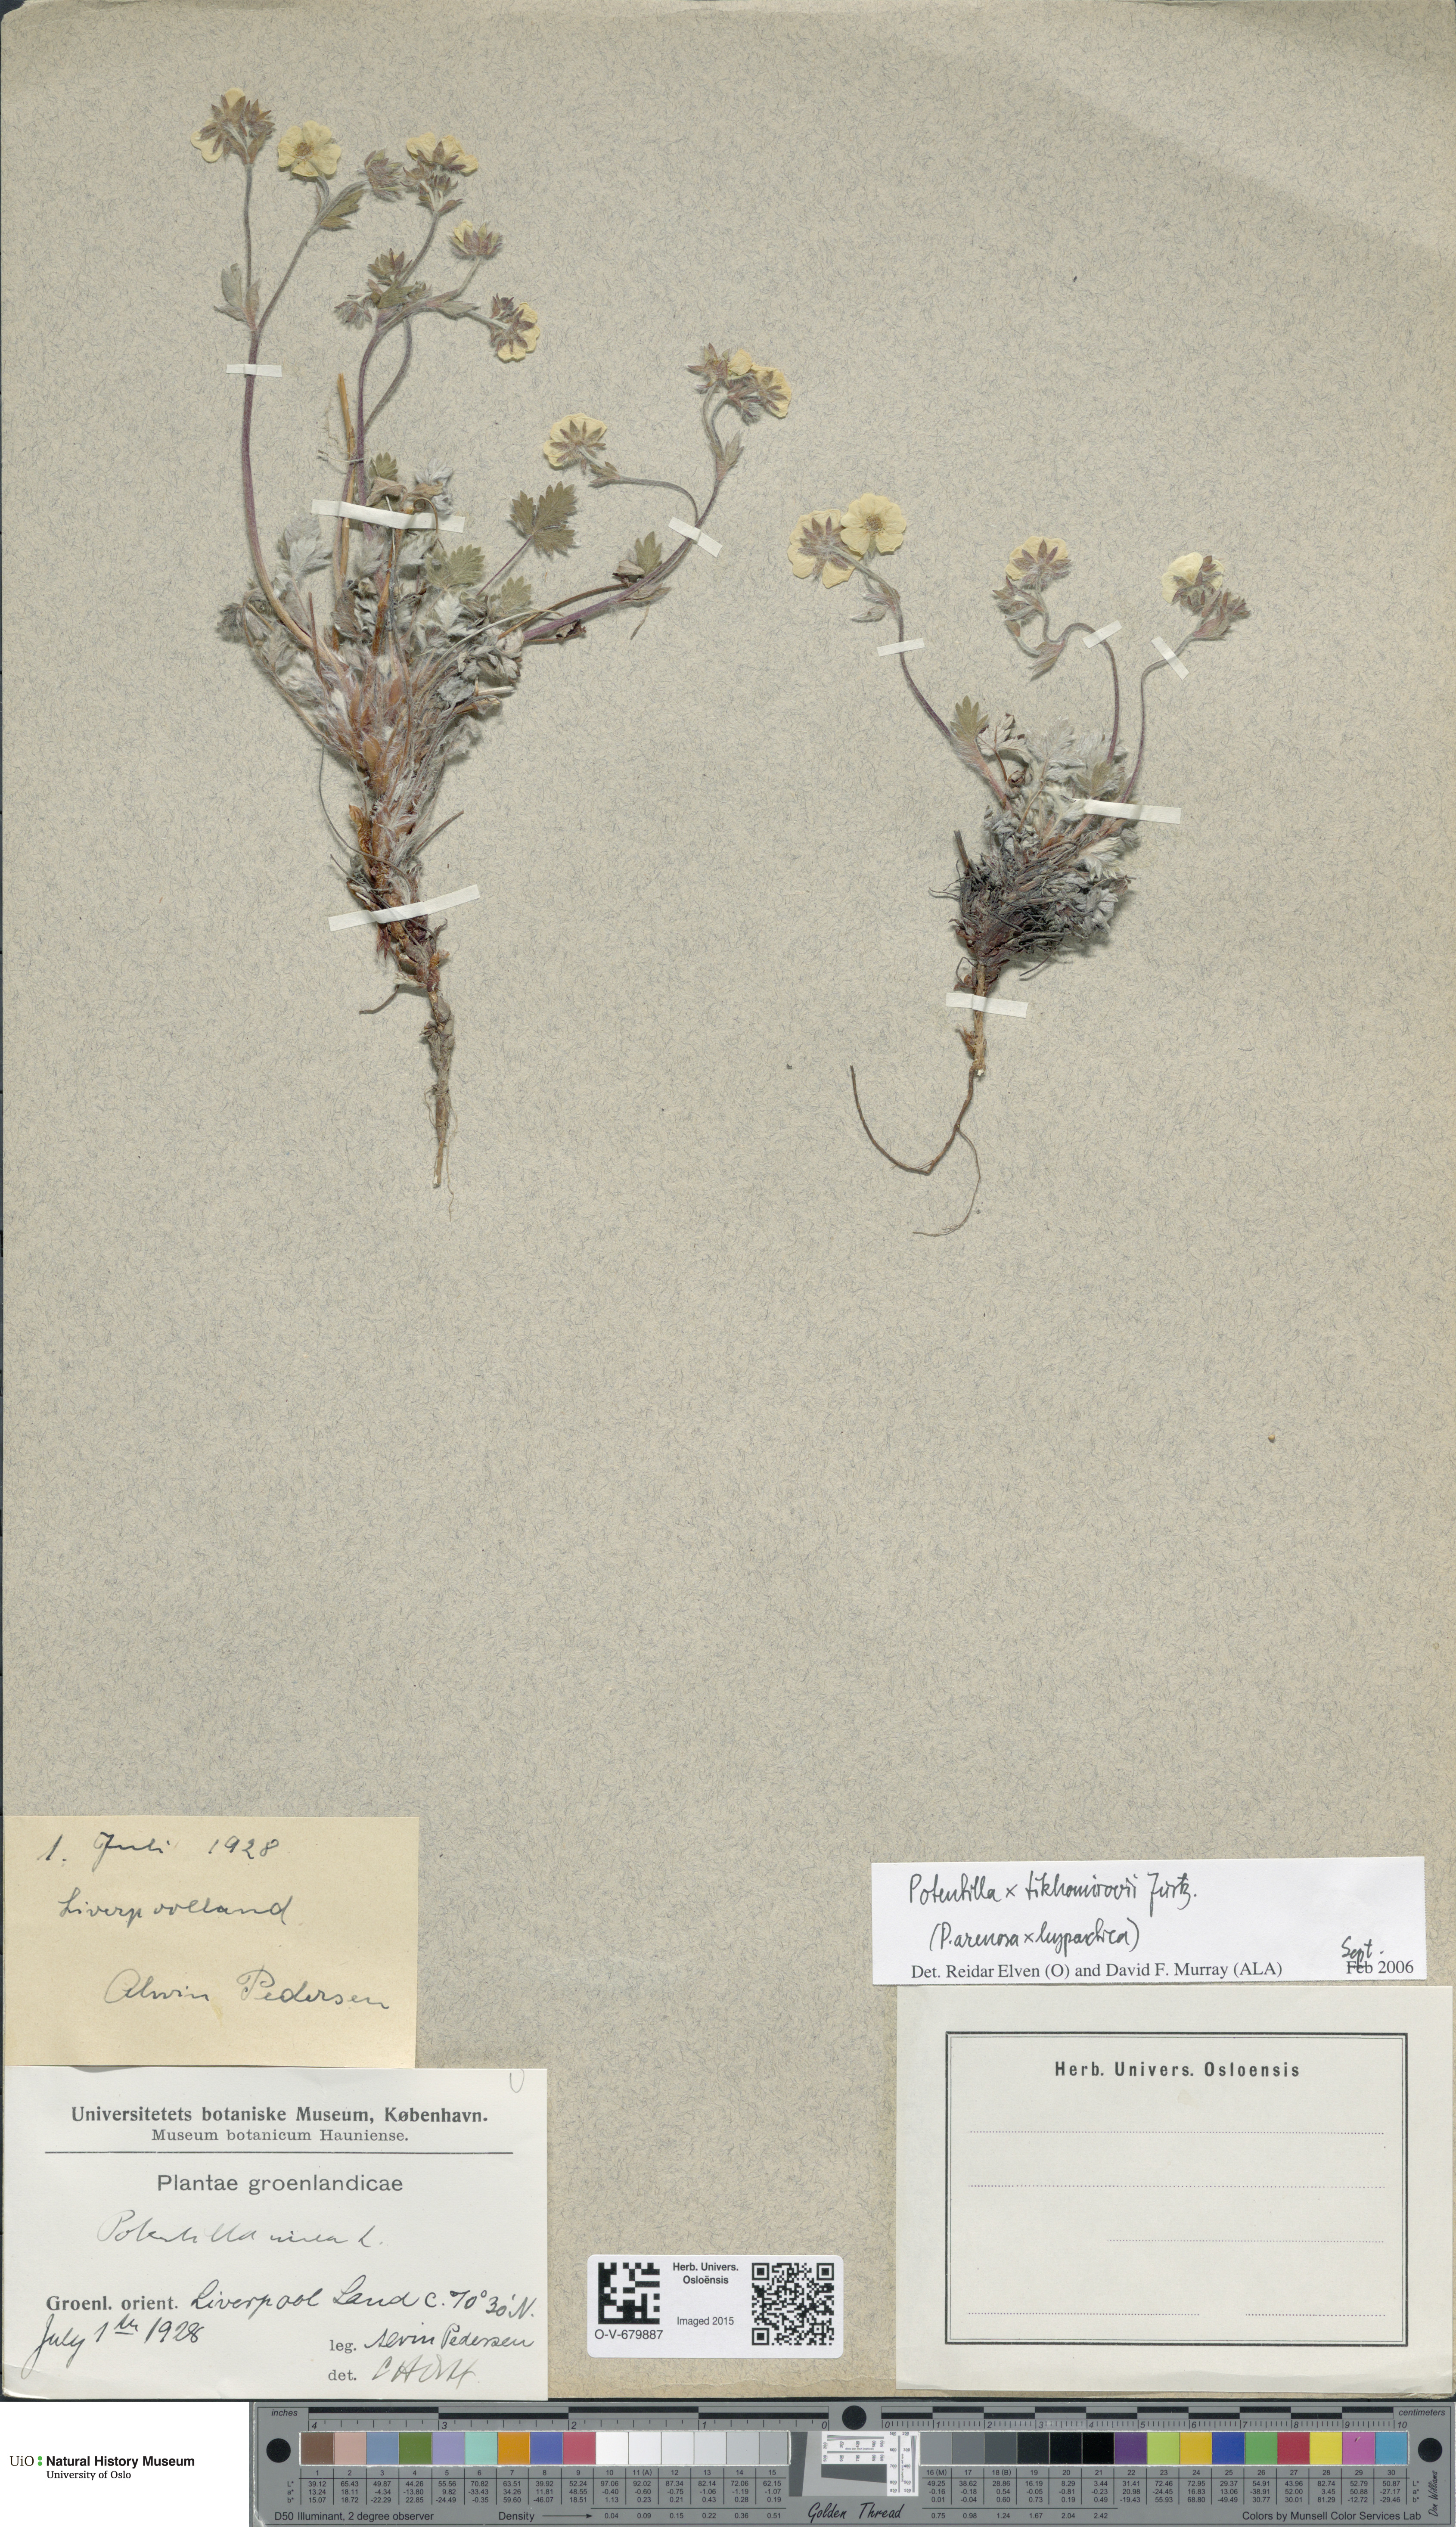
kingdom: Plantae
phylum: Tracheophyta
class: Magnoliopsida
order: Rosales
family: Rosaceae
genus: Potentilla
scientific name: Potentilla tikhomirovii
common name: Tikhomirov's cinquefoil
